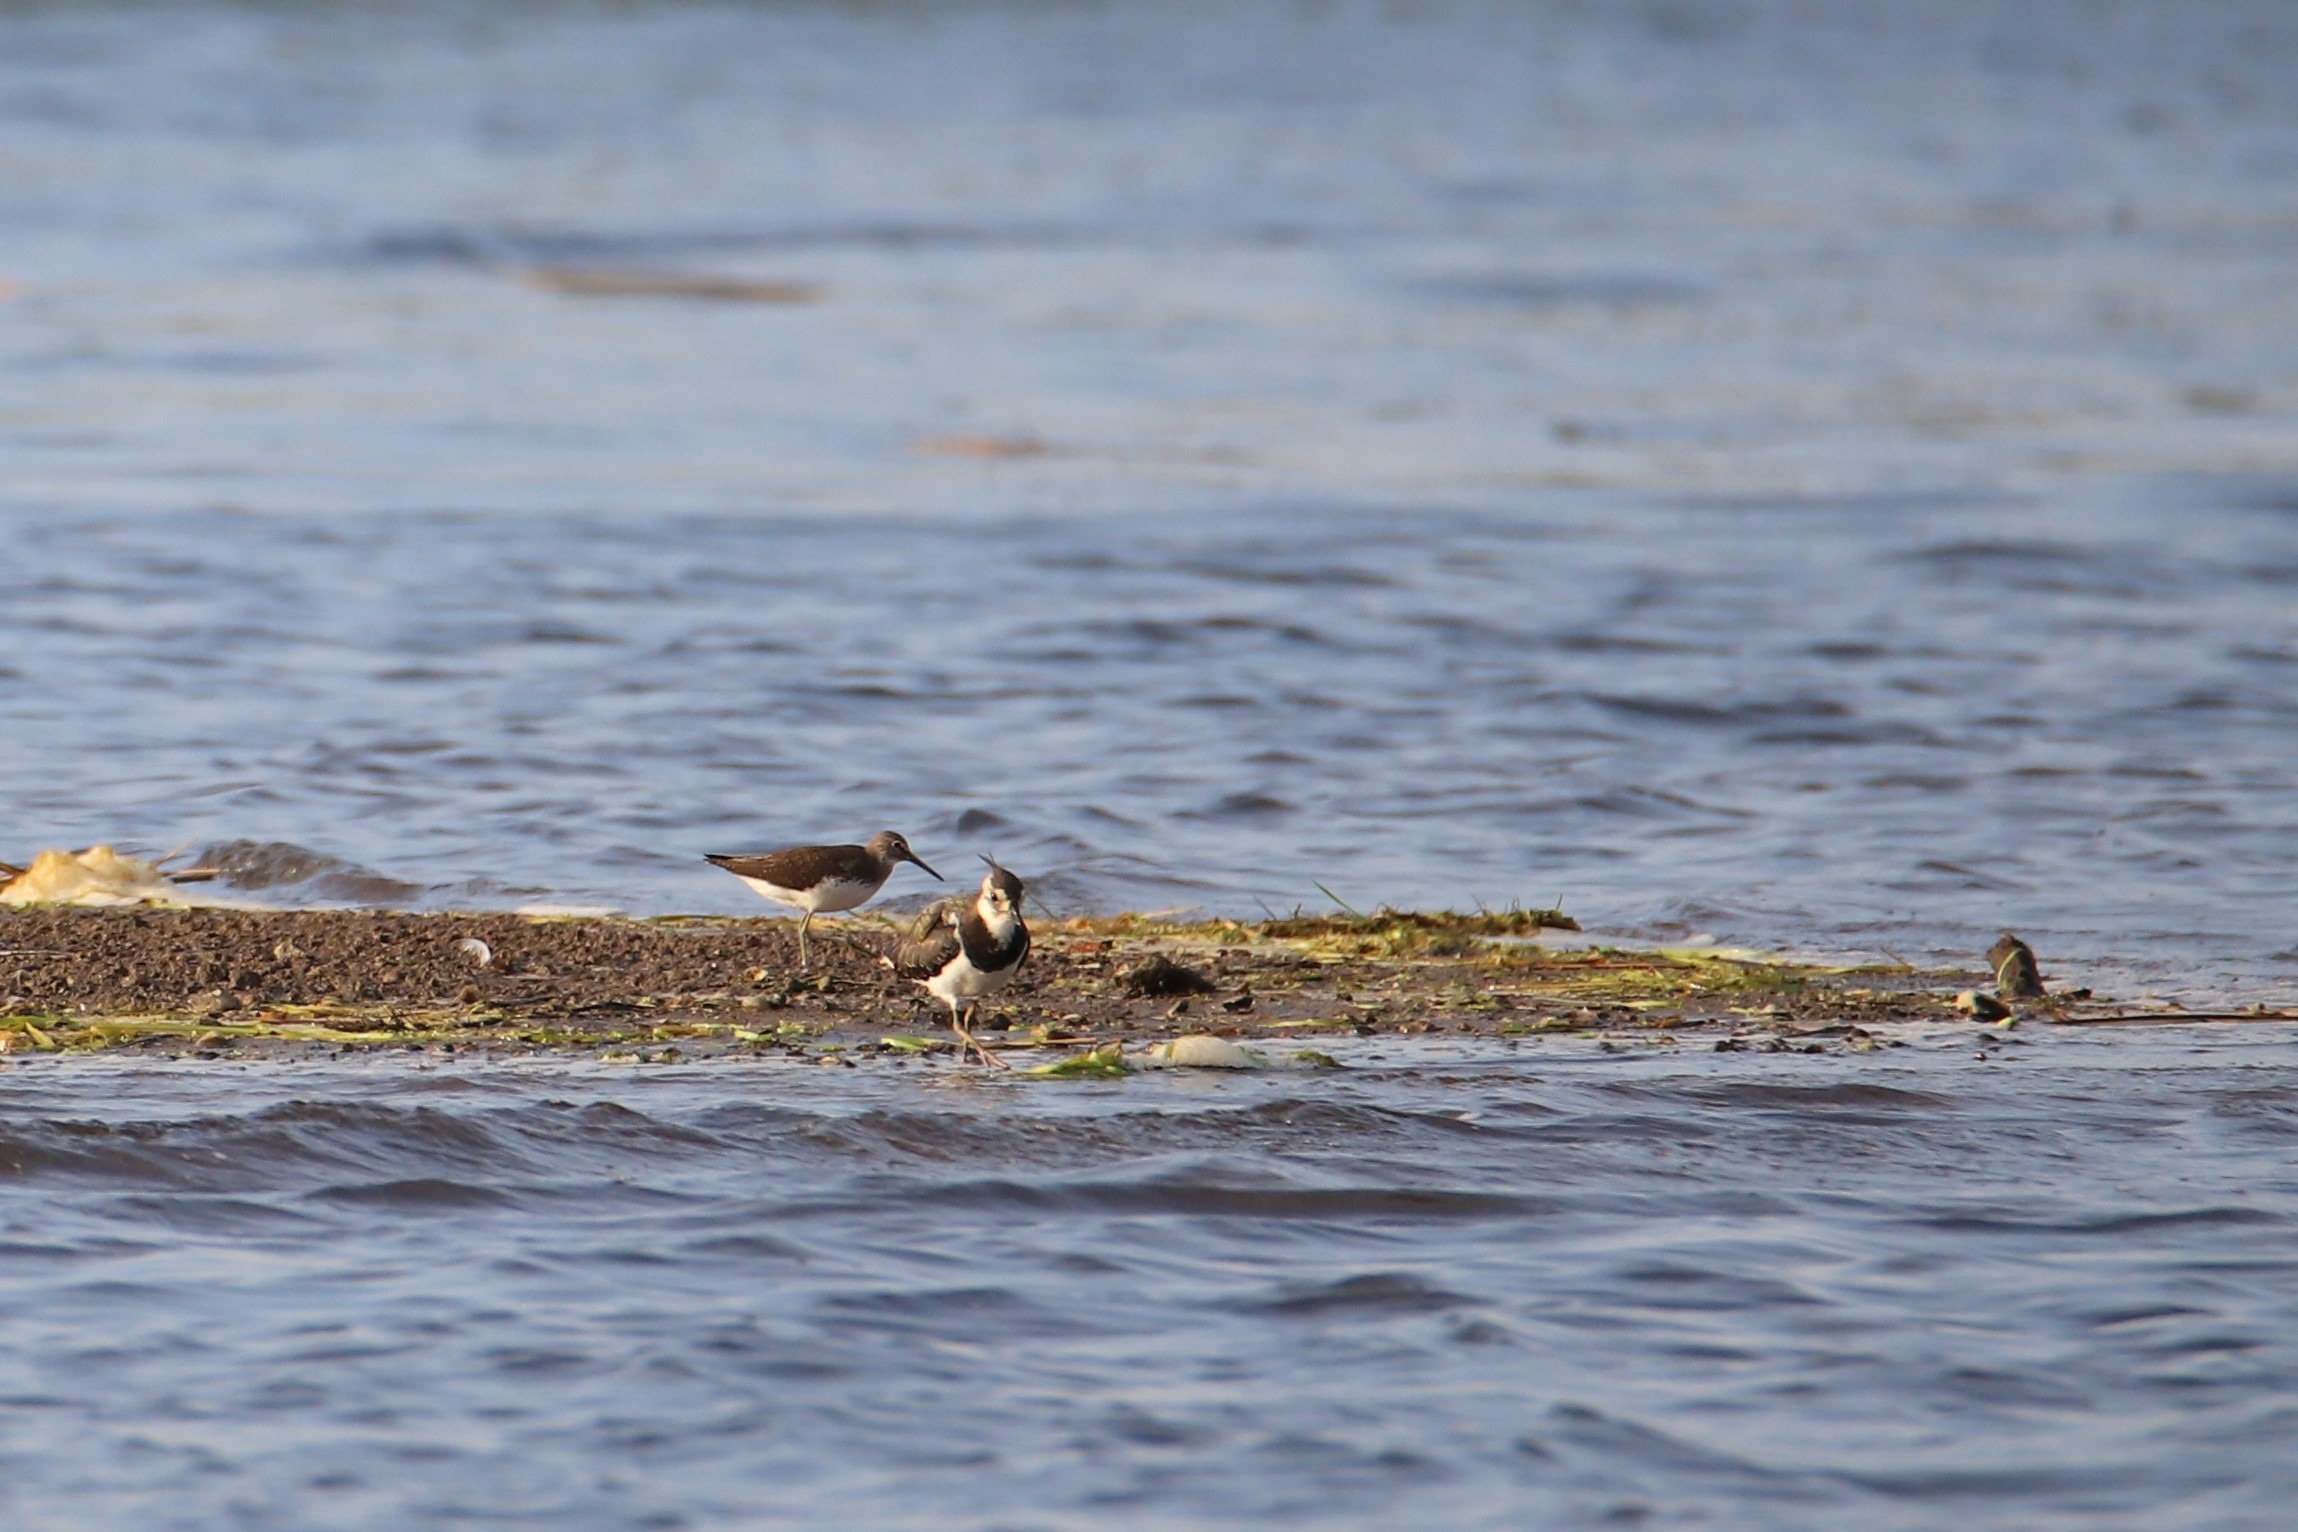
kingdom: Animalia
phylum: Chordata
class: Aves
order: Charadriiformes
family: Scolopacidae
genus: Tringa
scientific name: Tringa ochropus
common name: Svaleklire
